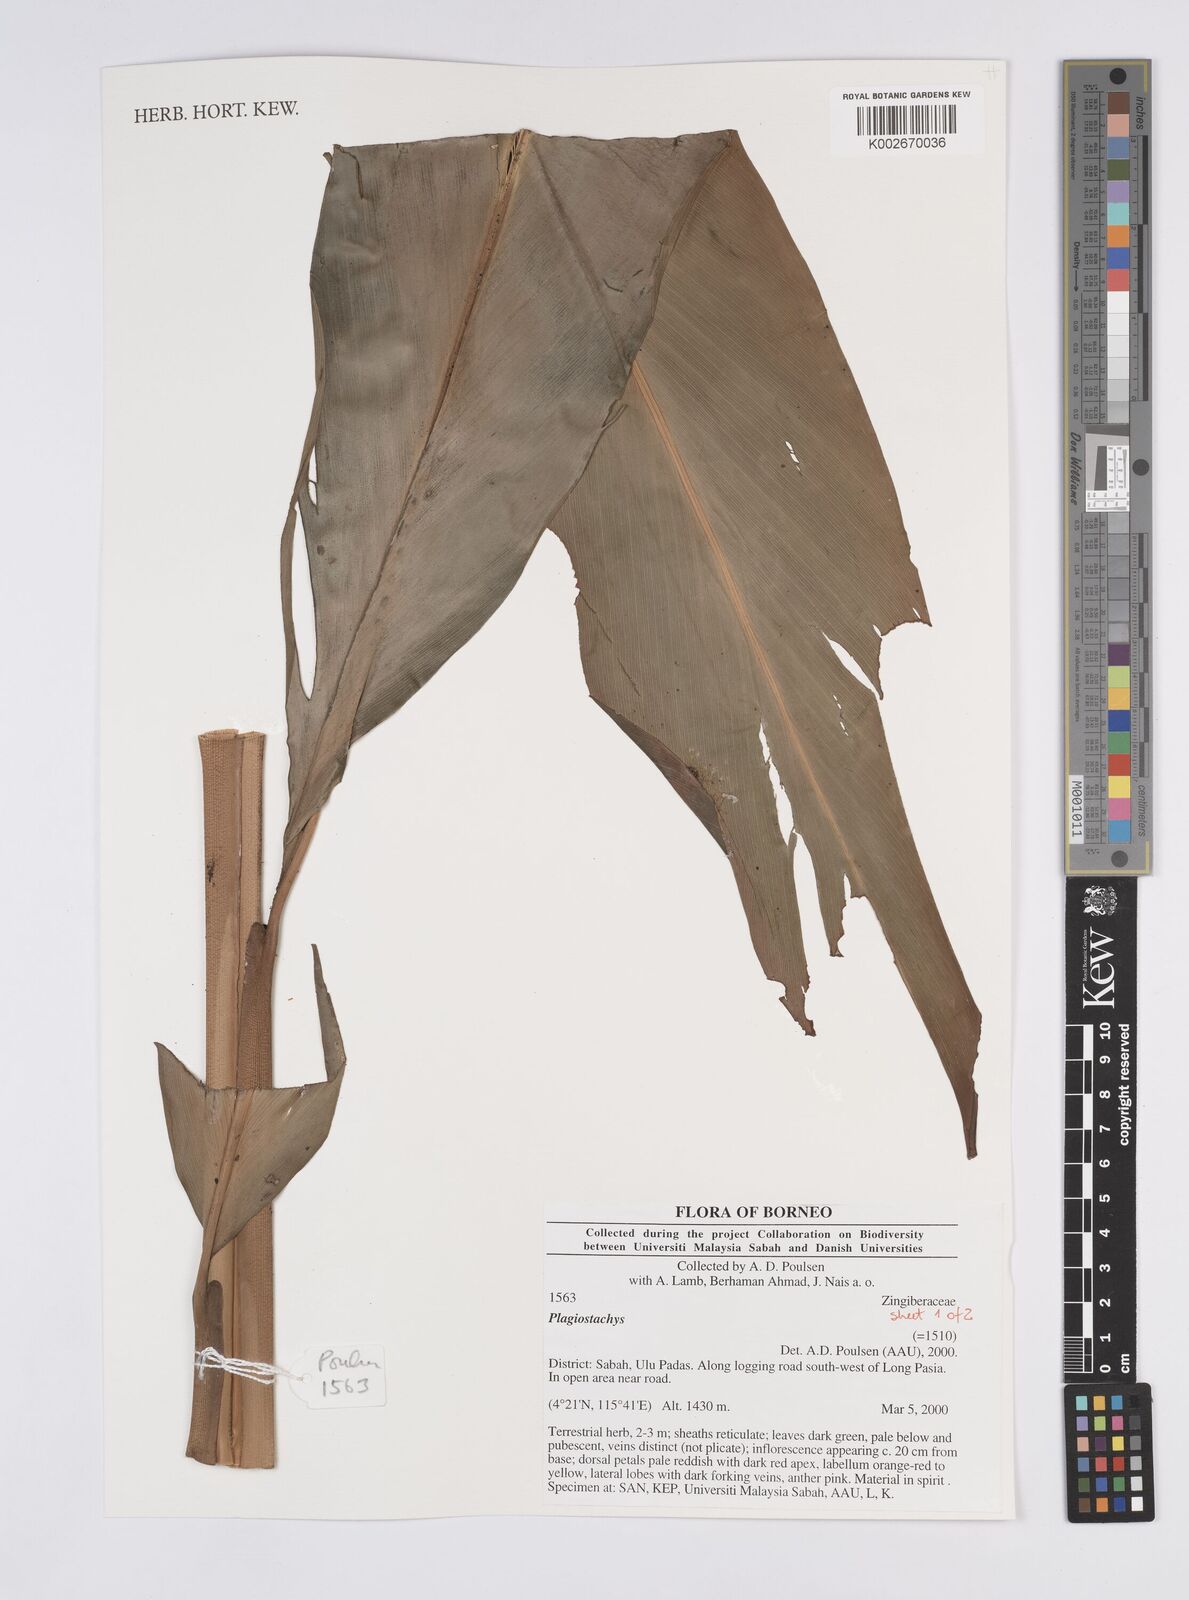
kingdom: Plantae
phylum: Tracheophyta
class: Liliopsida
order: Zingiberales
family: Zingiberaceae
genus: Plagiostachys
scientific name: Plagiostachys
